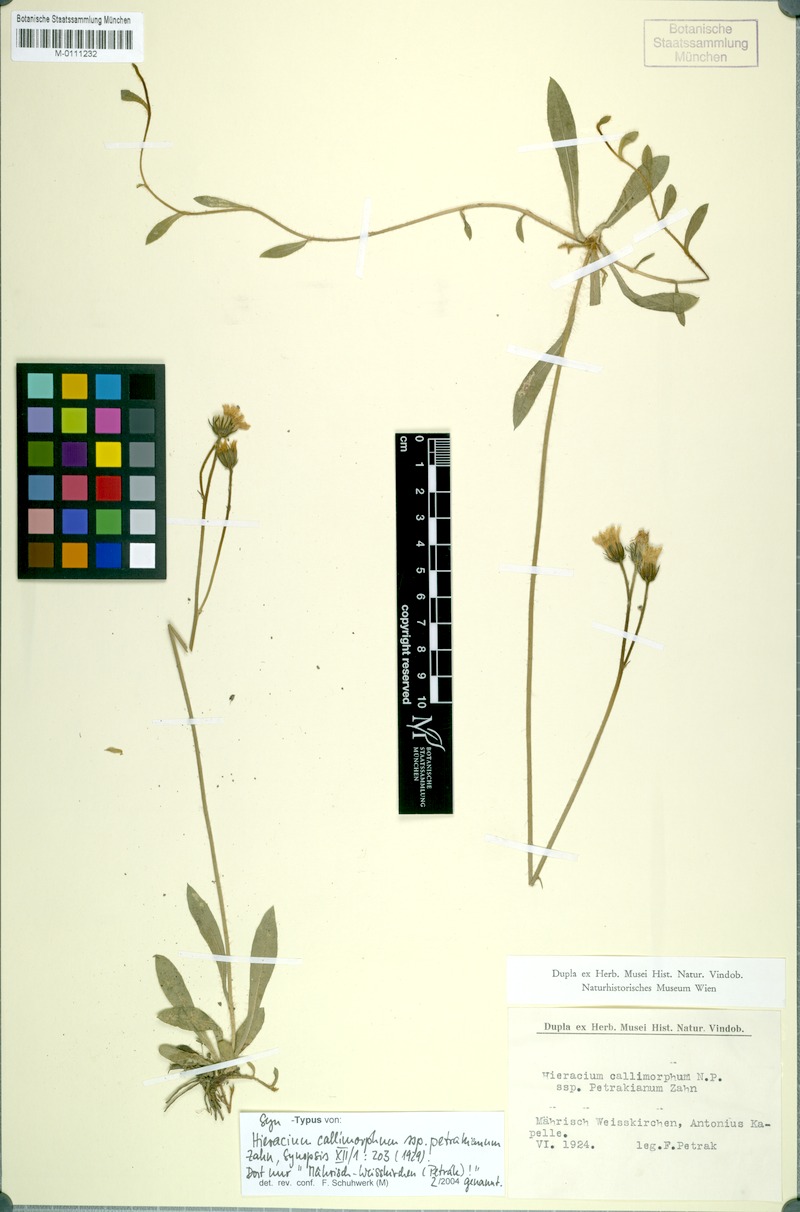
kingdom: Plantae
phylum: Tracheophyta
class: Magnoliopsida
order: Asterales
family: Asteraceae
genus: Pilosella
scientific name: Pilosella iserana
